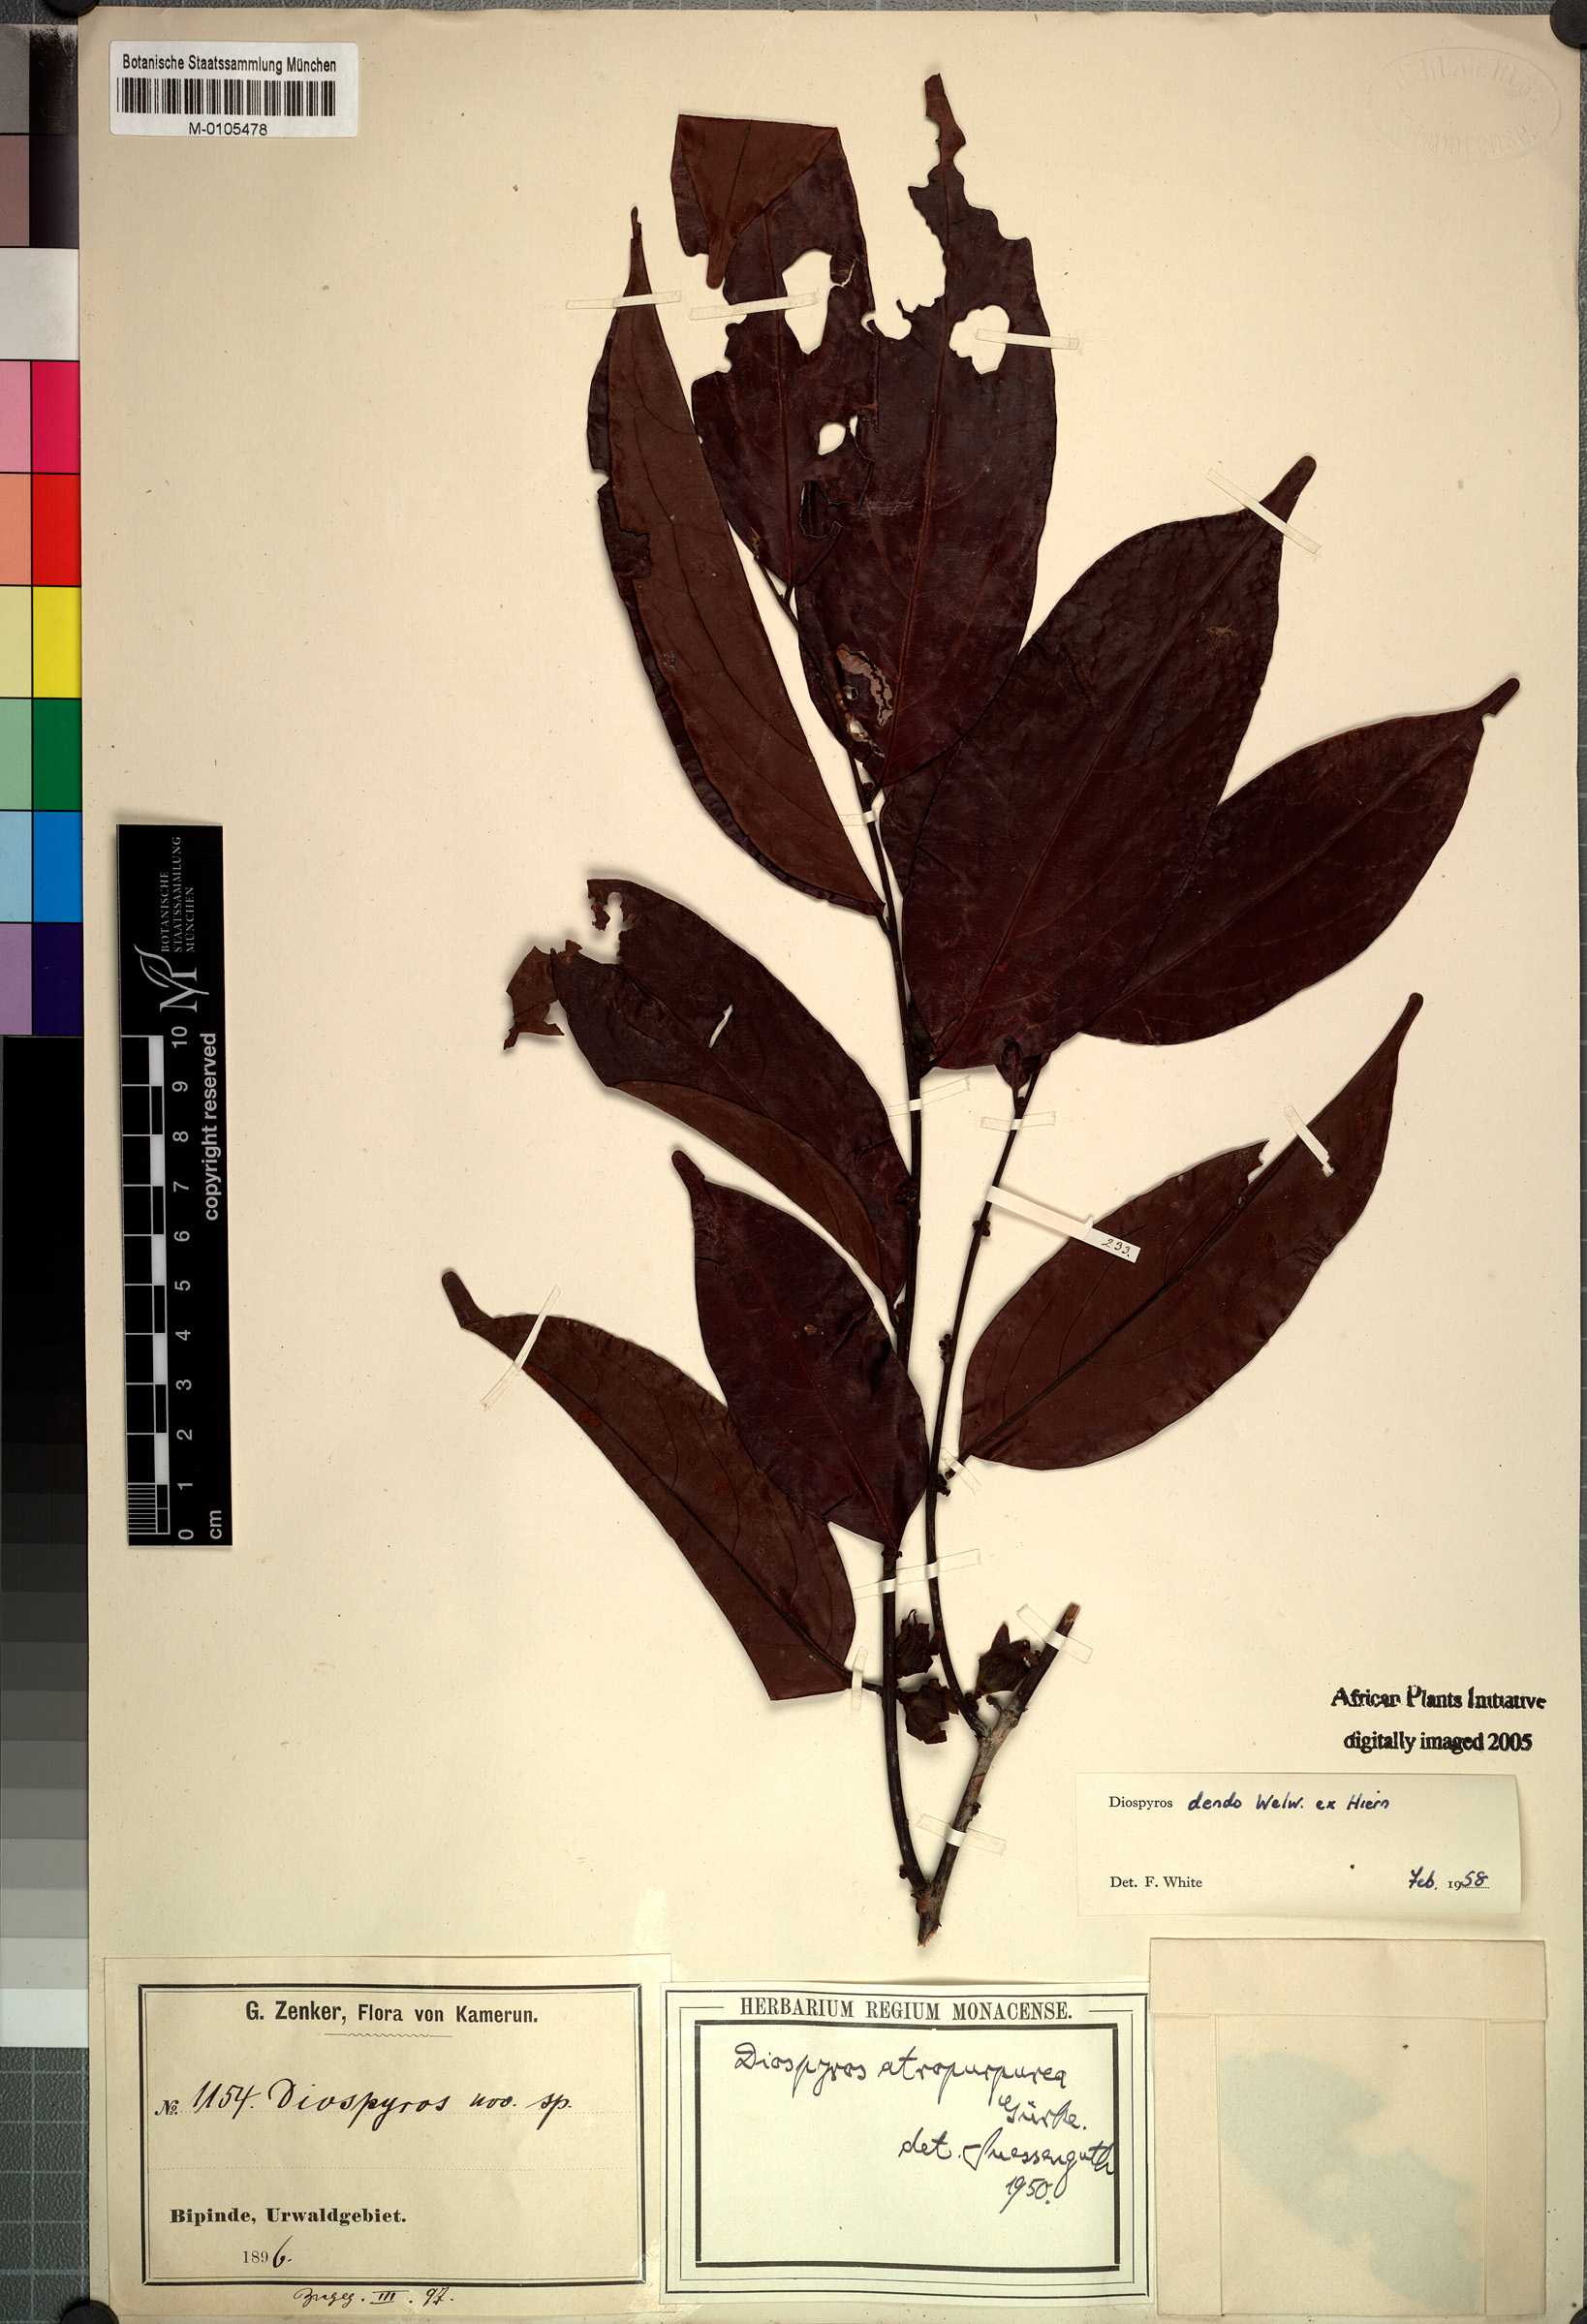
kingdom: Plantae
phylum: Tracheophyta
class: Magnoliopsida
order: Ericales
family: Ebenaceae
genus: Diospyros
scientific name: Diospyros dendo
